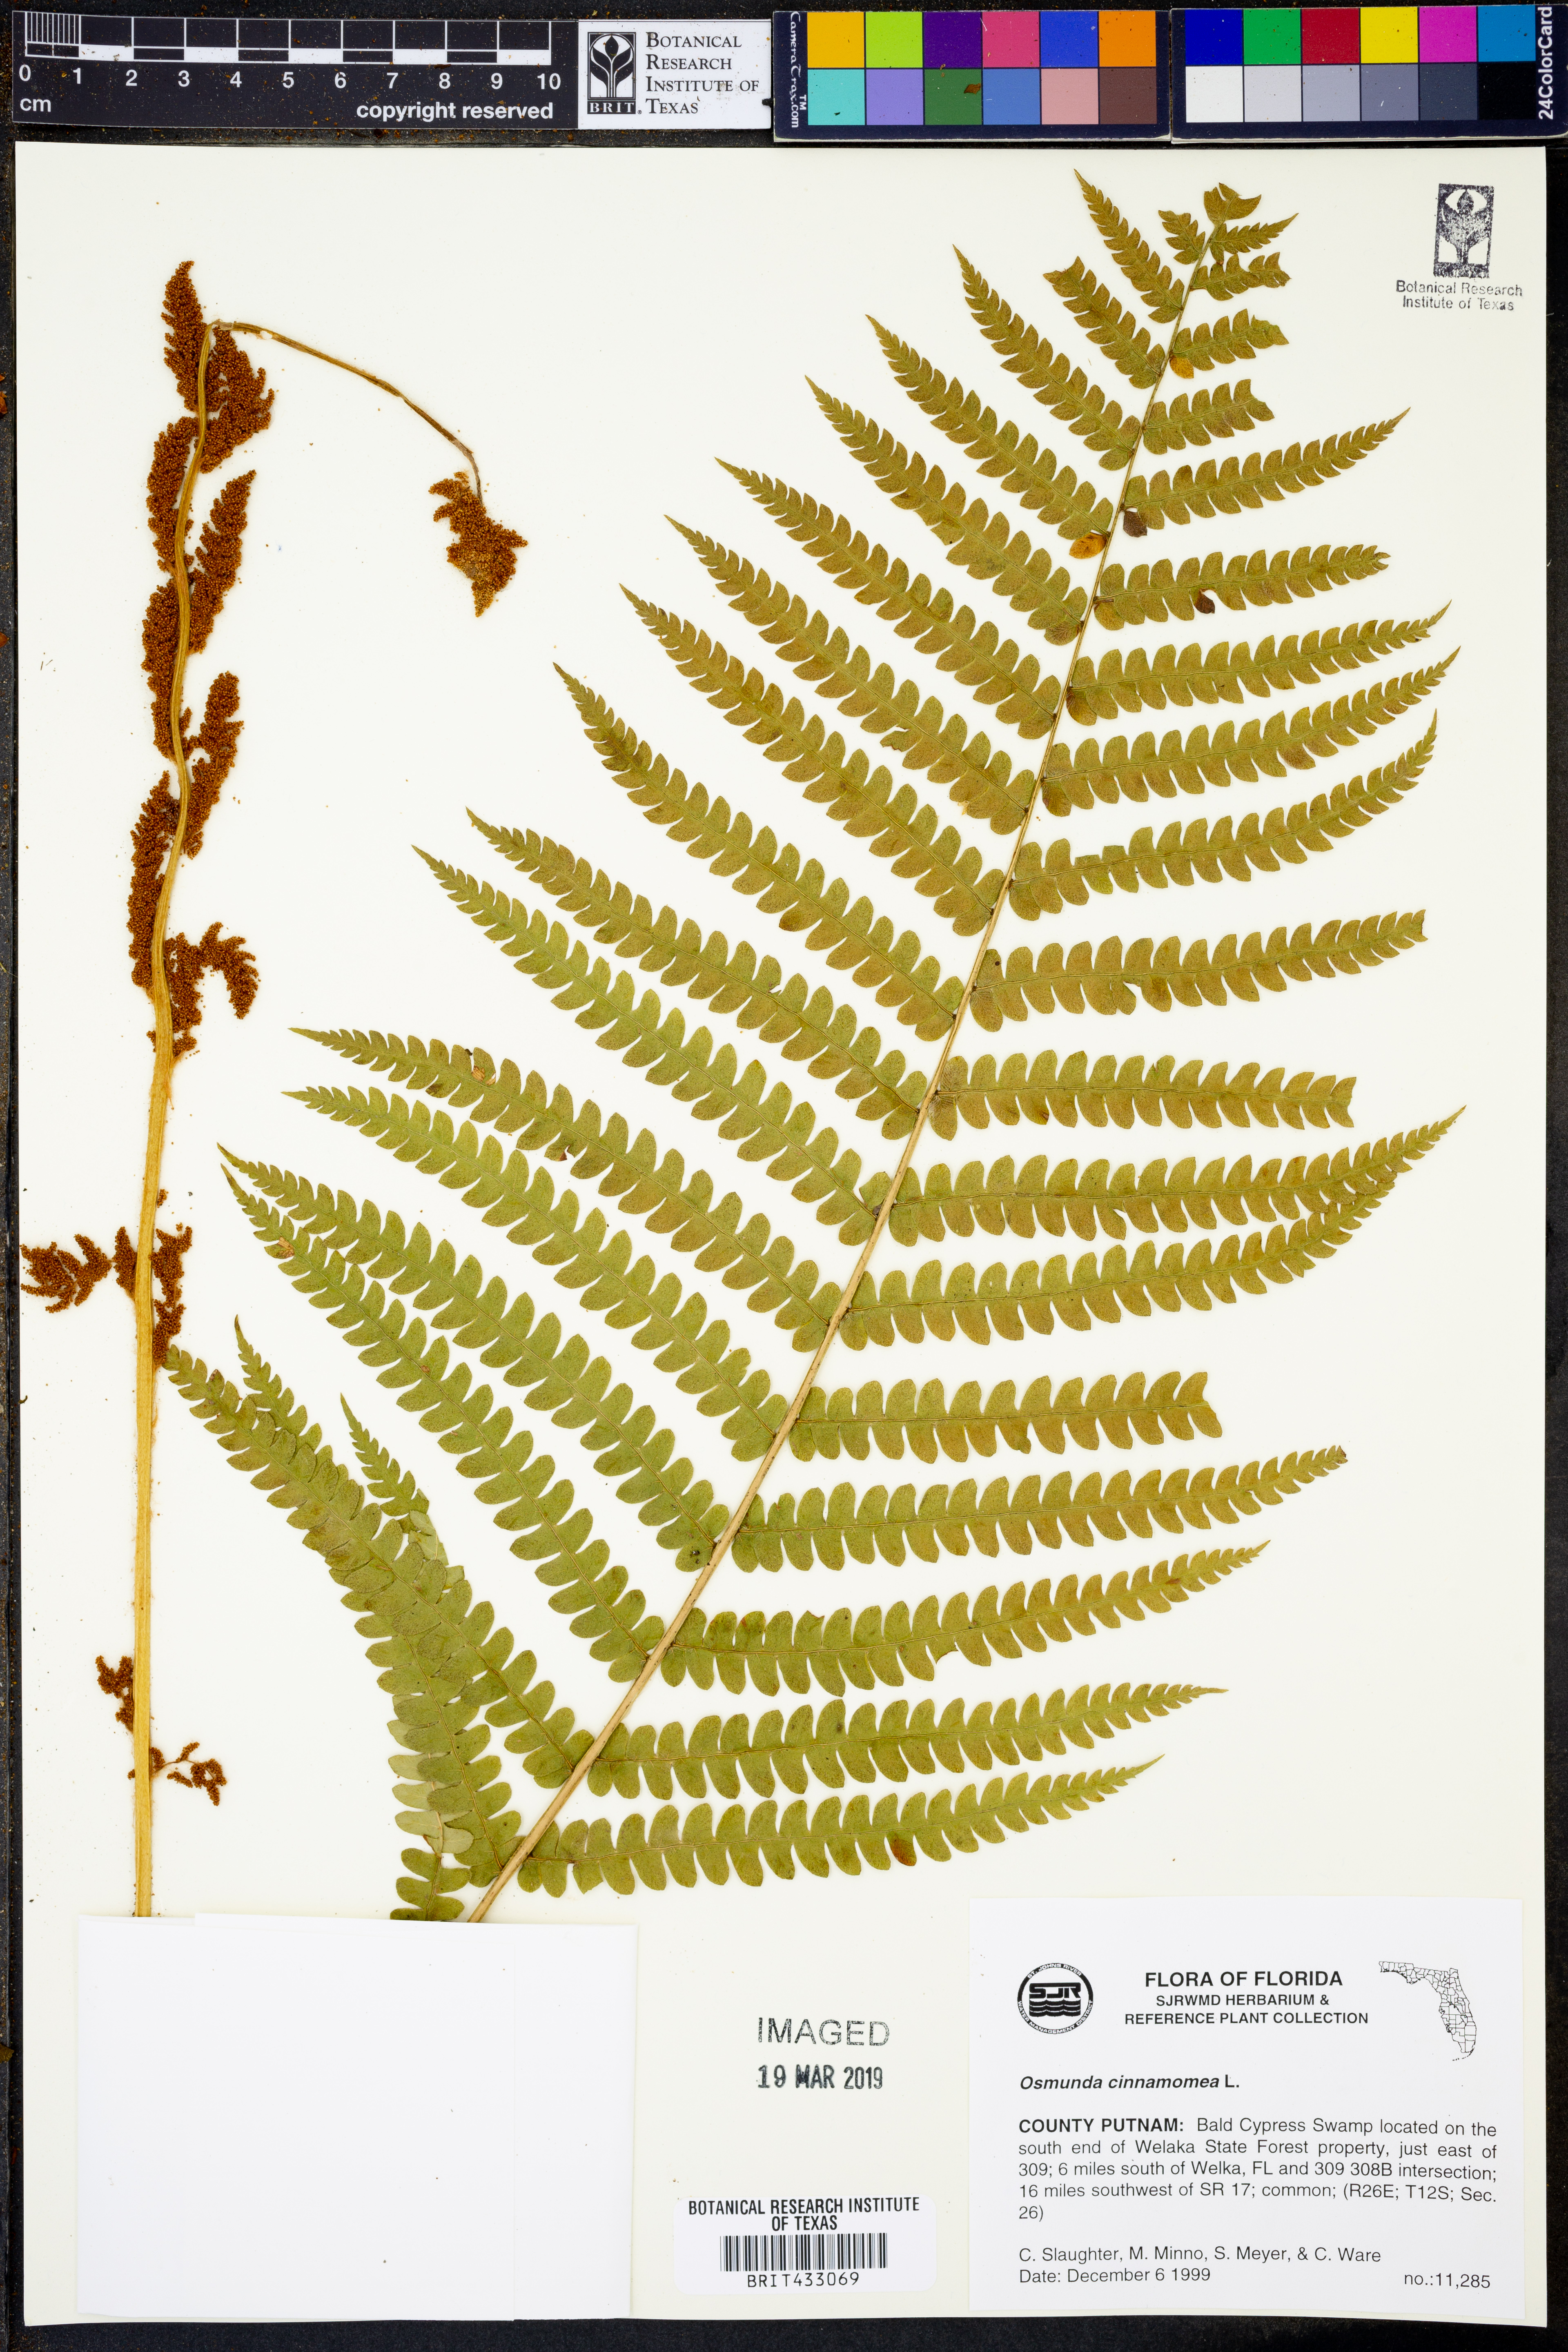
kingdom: Plantae
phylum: Tracheophyta
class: Polypodiopsida
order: Osmundales
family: Osmundaceae
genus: Osmundastrum
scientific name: Osmundastrum cinnamomeum
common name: Cinnamon fern
